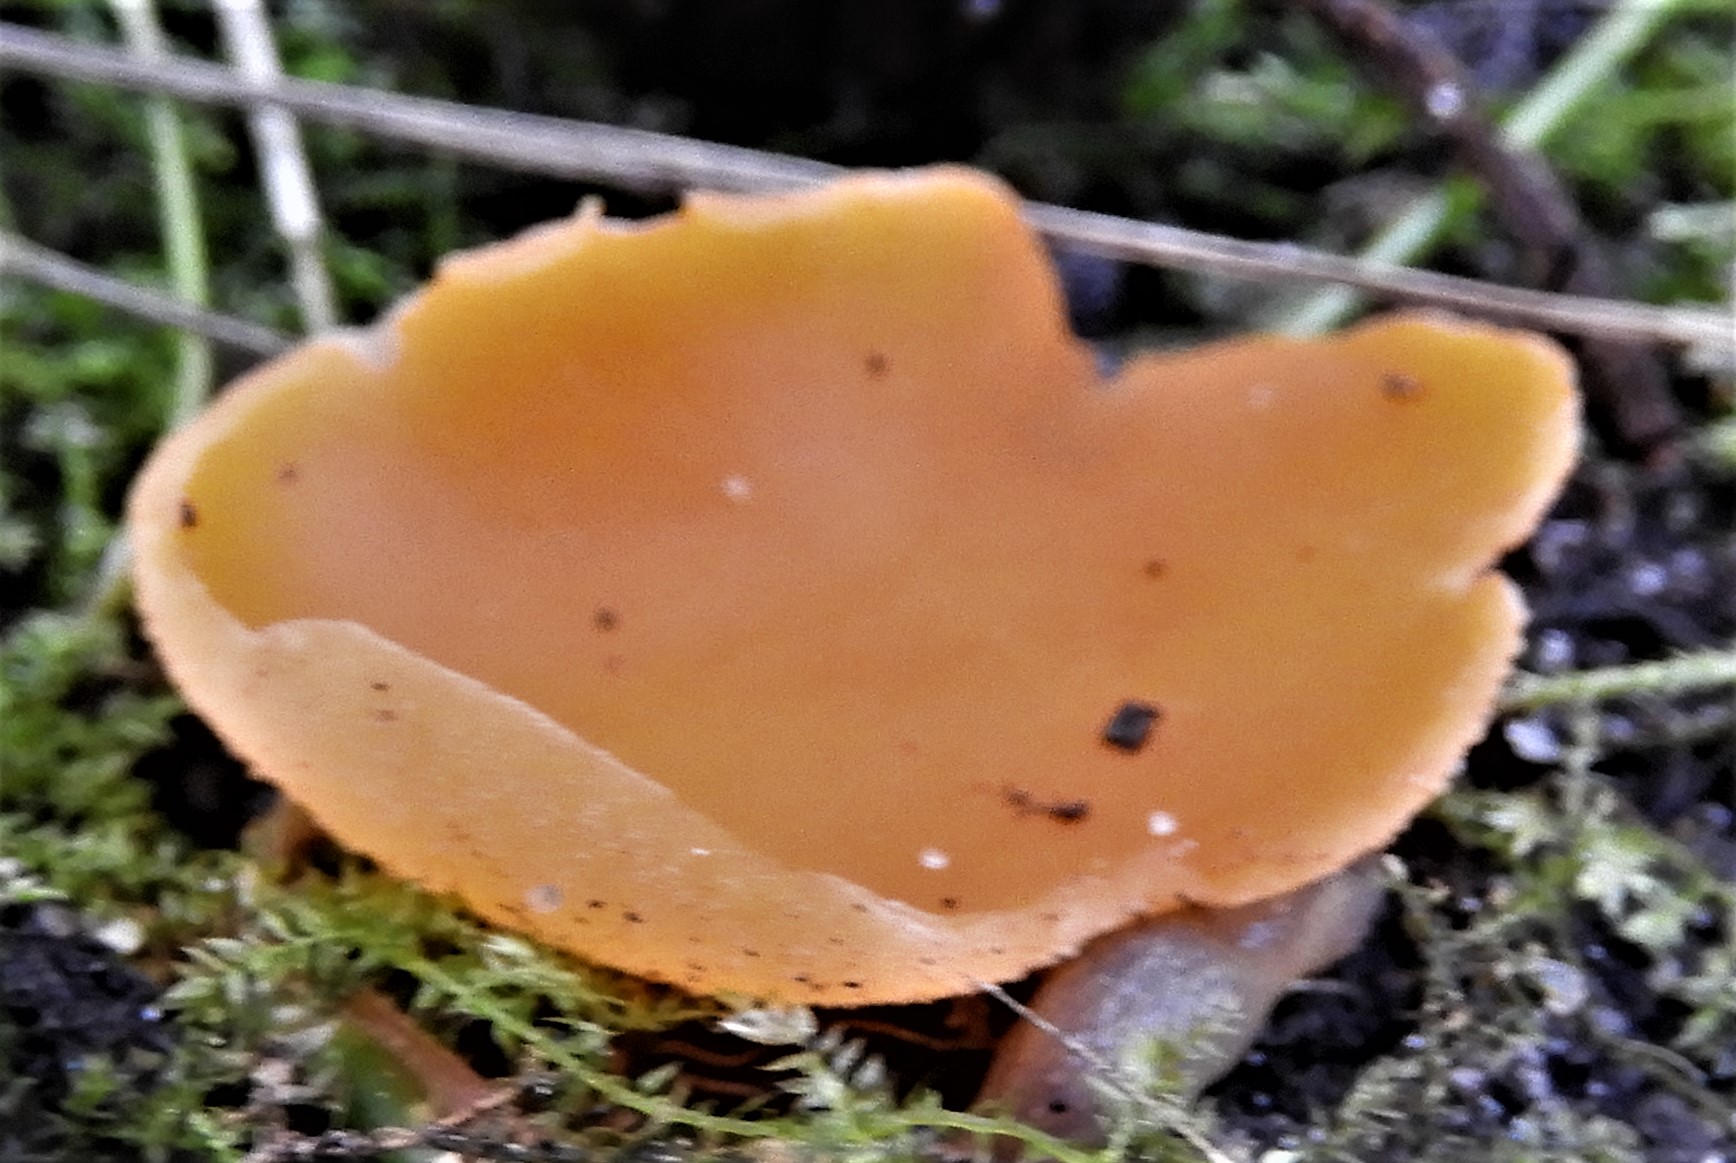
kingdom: Fungi
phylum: Ascomycota
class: Pezizomycetes
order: Pezizales
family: Pyronemataceae
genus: Aleuria
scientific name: Aleuria aurantia
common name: almindelig orangebæger
